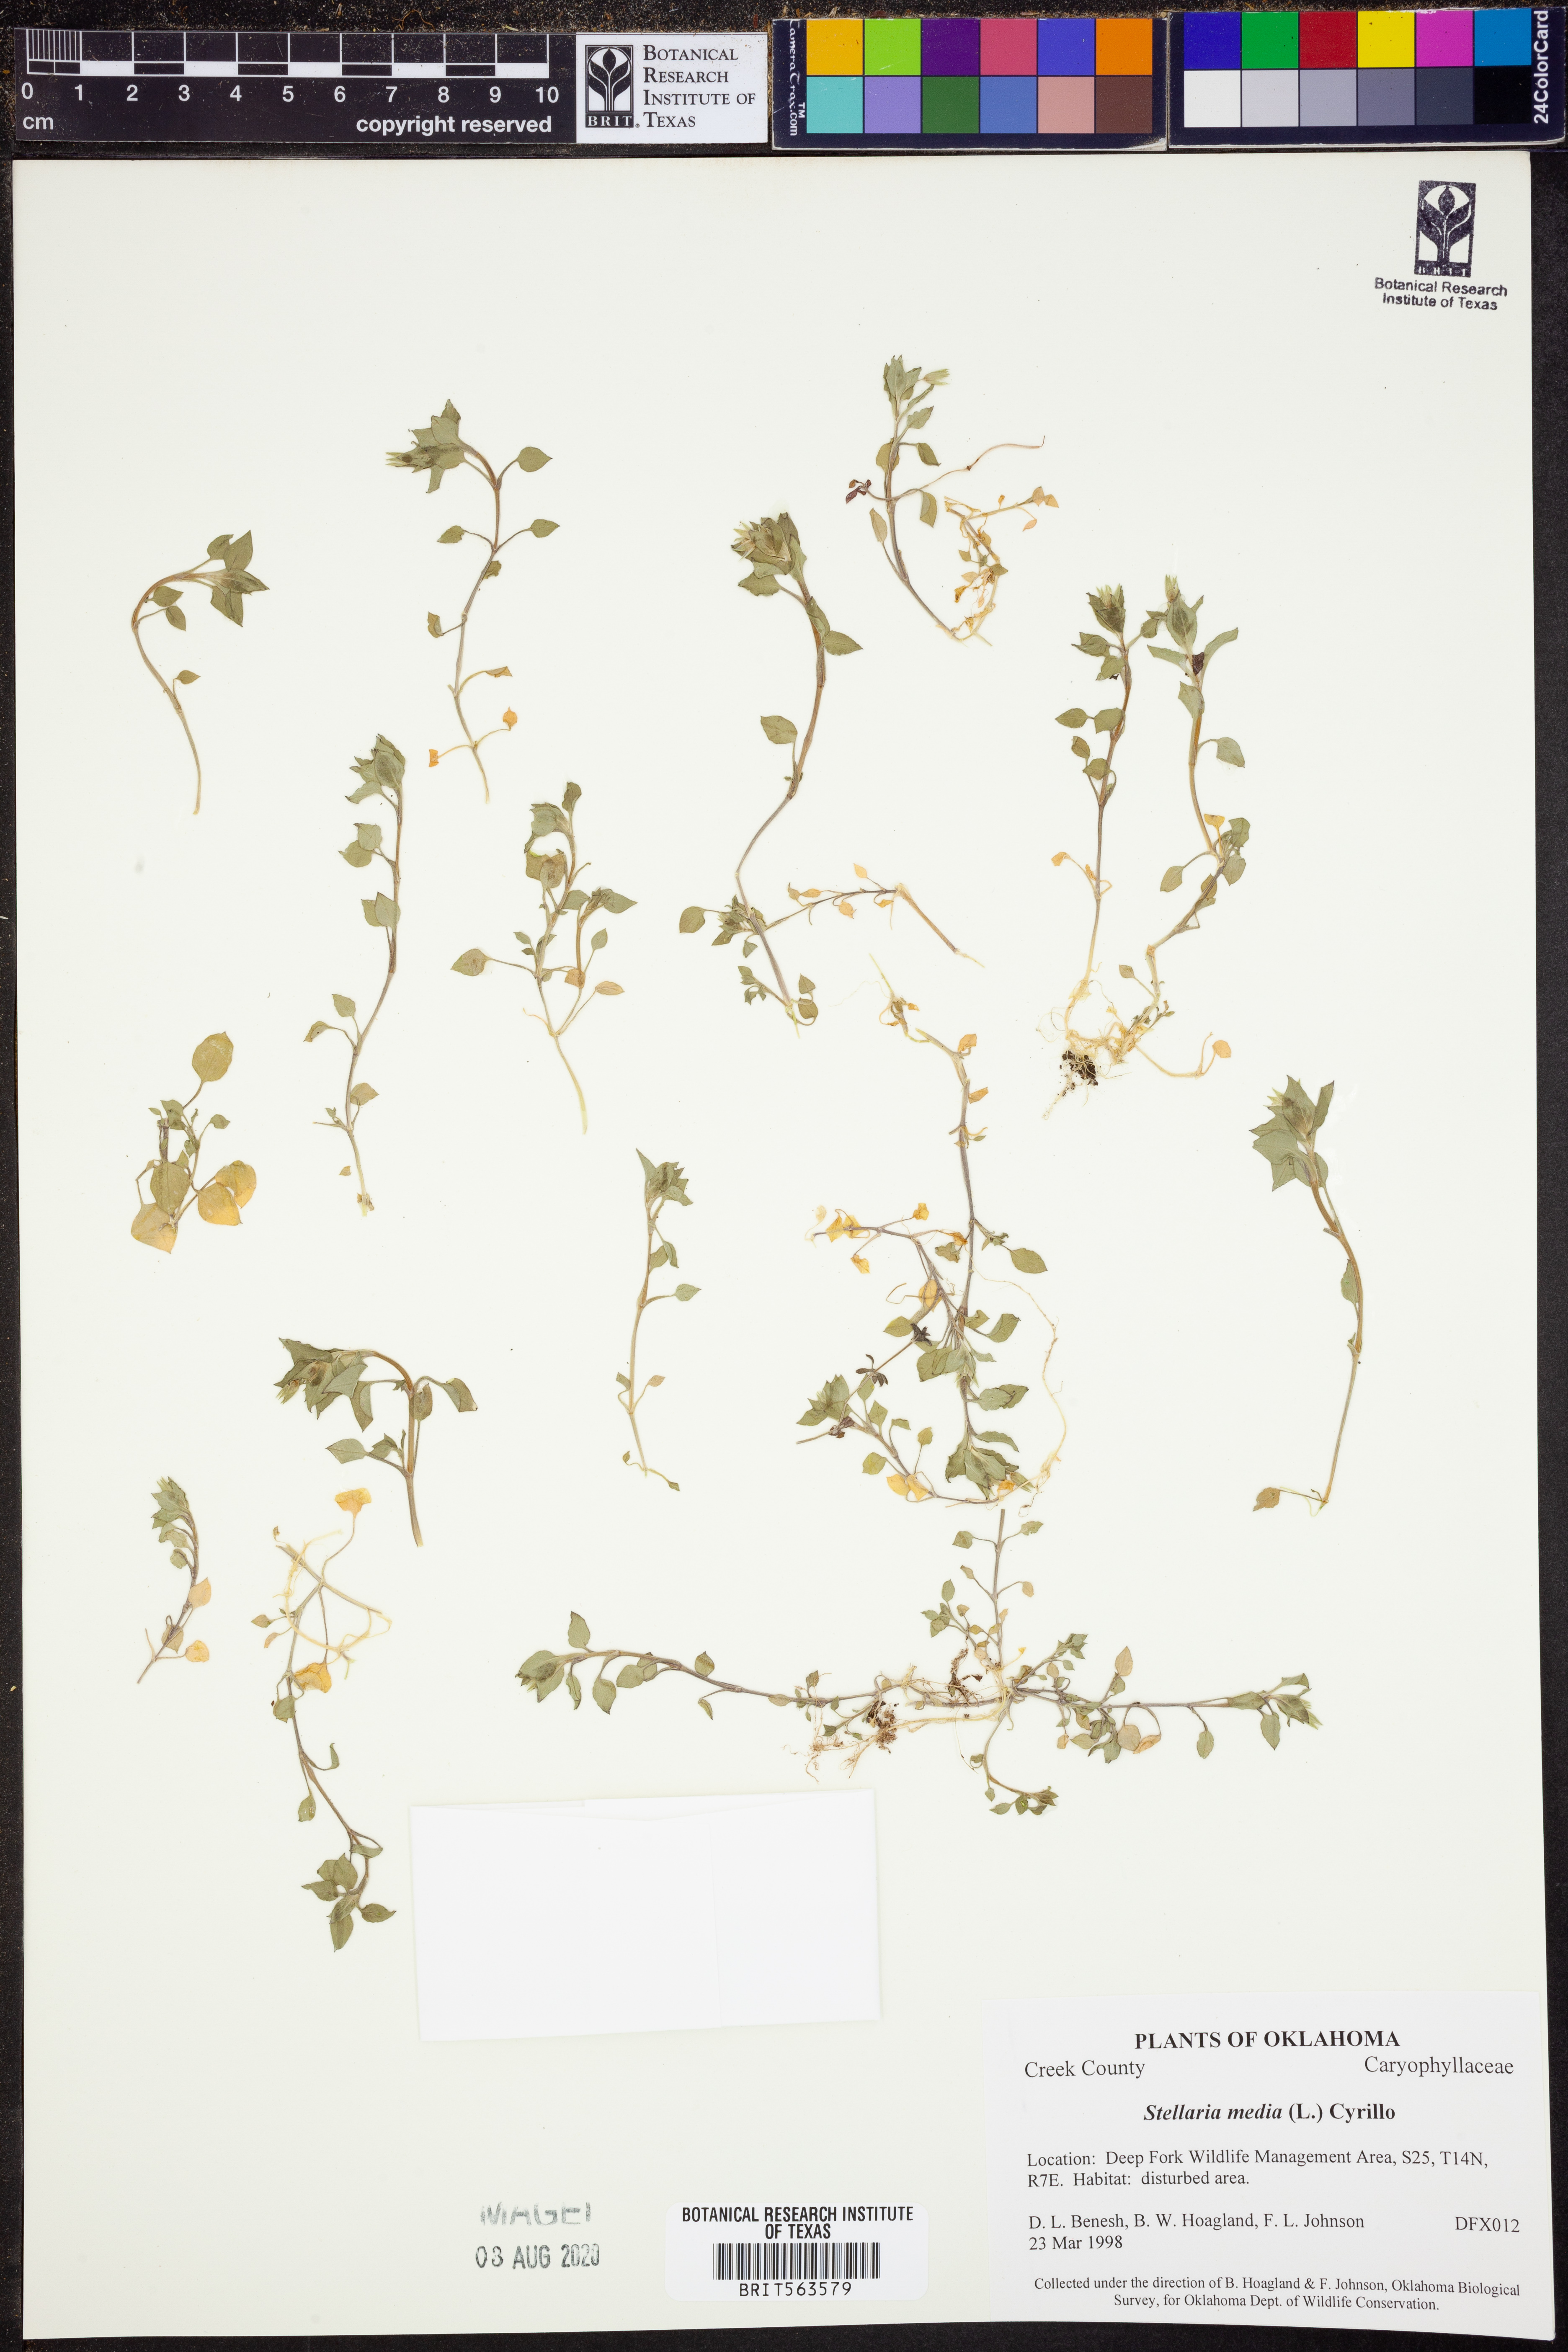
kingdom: Plantae
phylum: Tracheophyta
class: Magnoliopsida
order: Caryophyllales
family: Caryophyllaceae
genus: Stellaria
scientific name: Stellaria media
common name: Common chickweed
